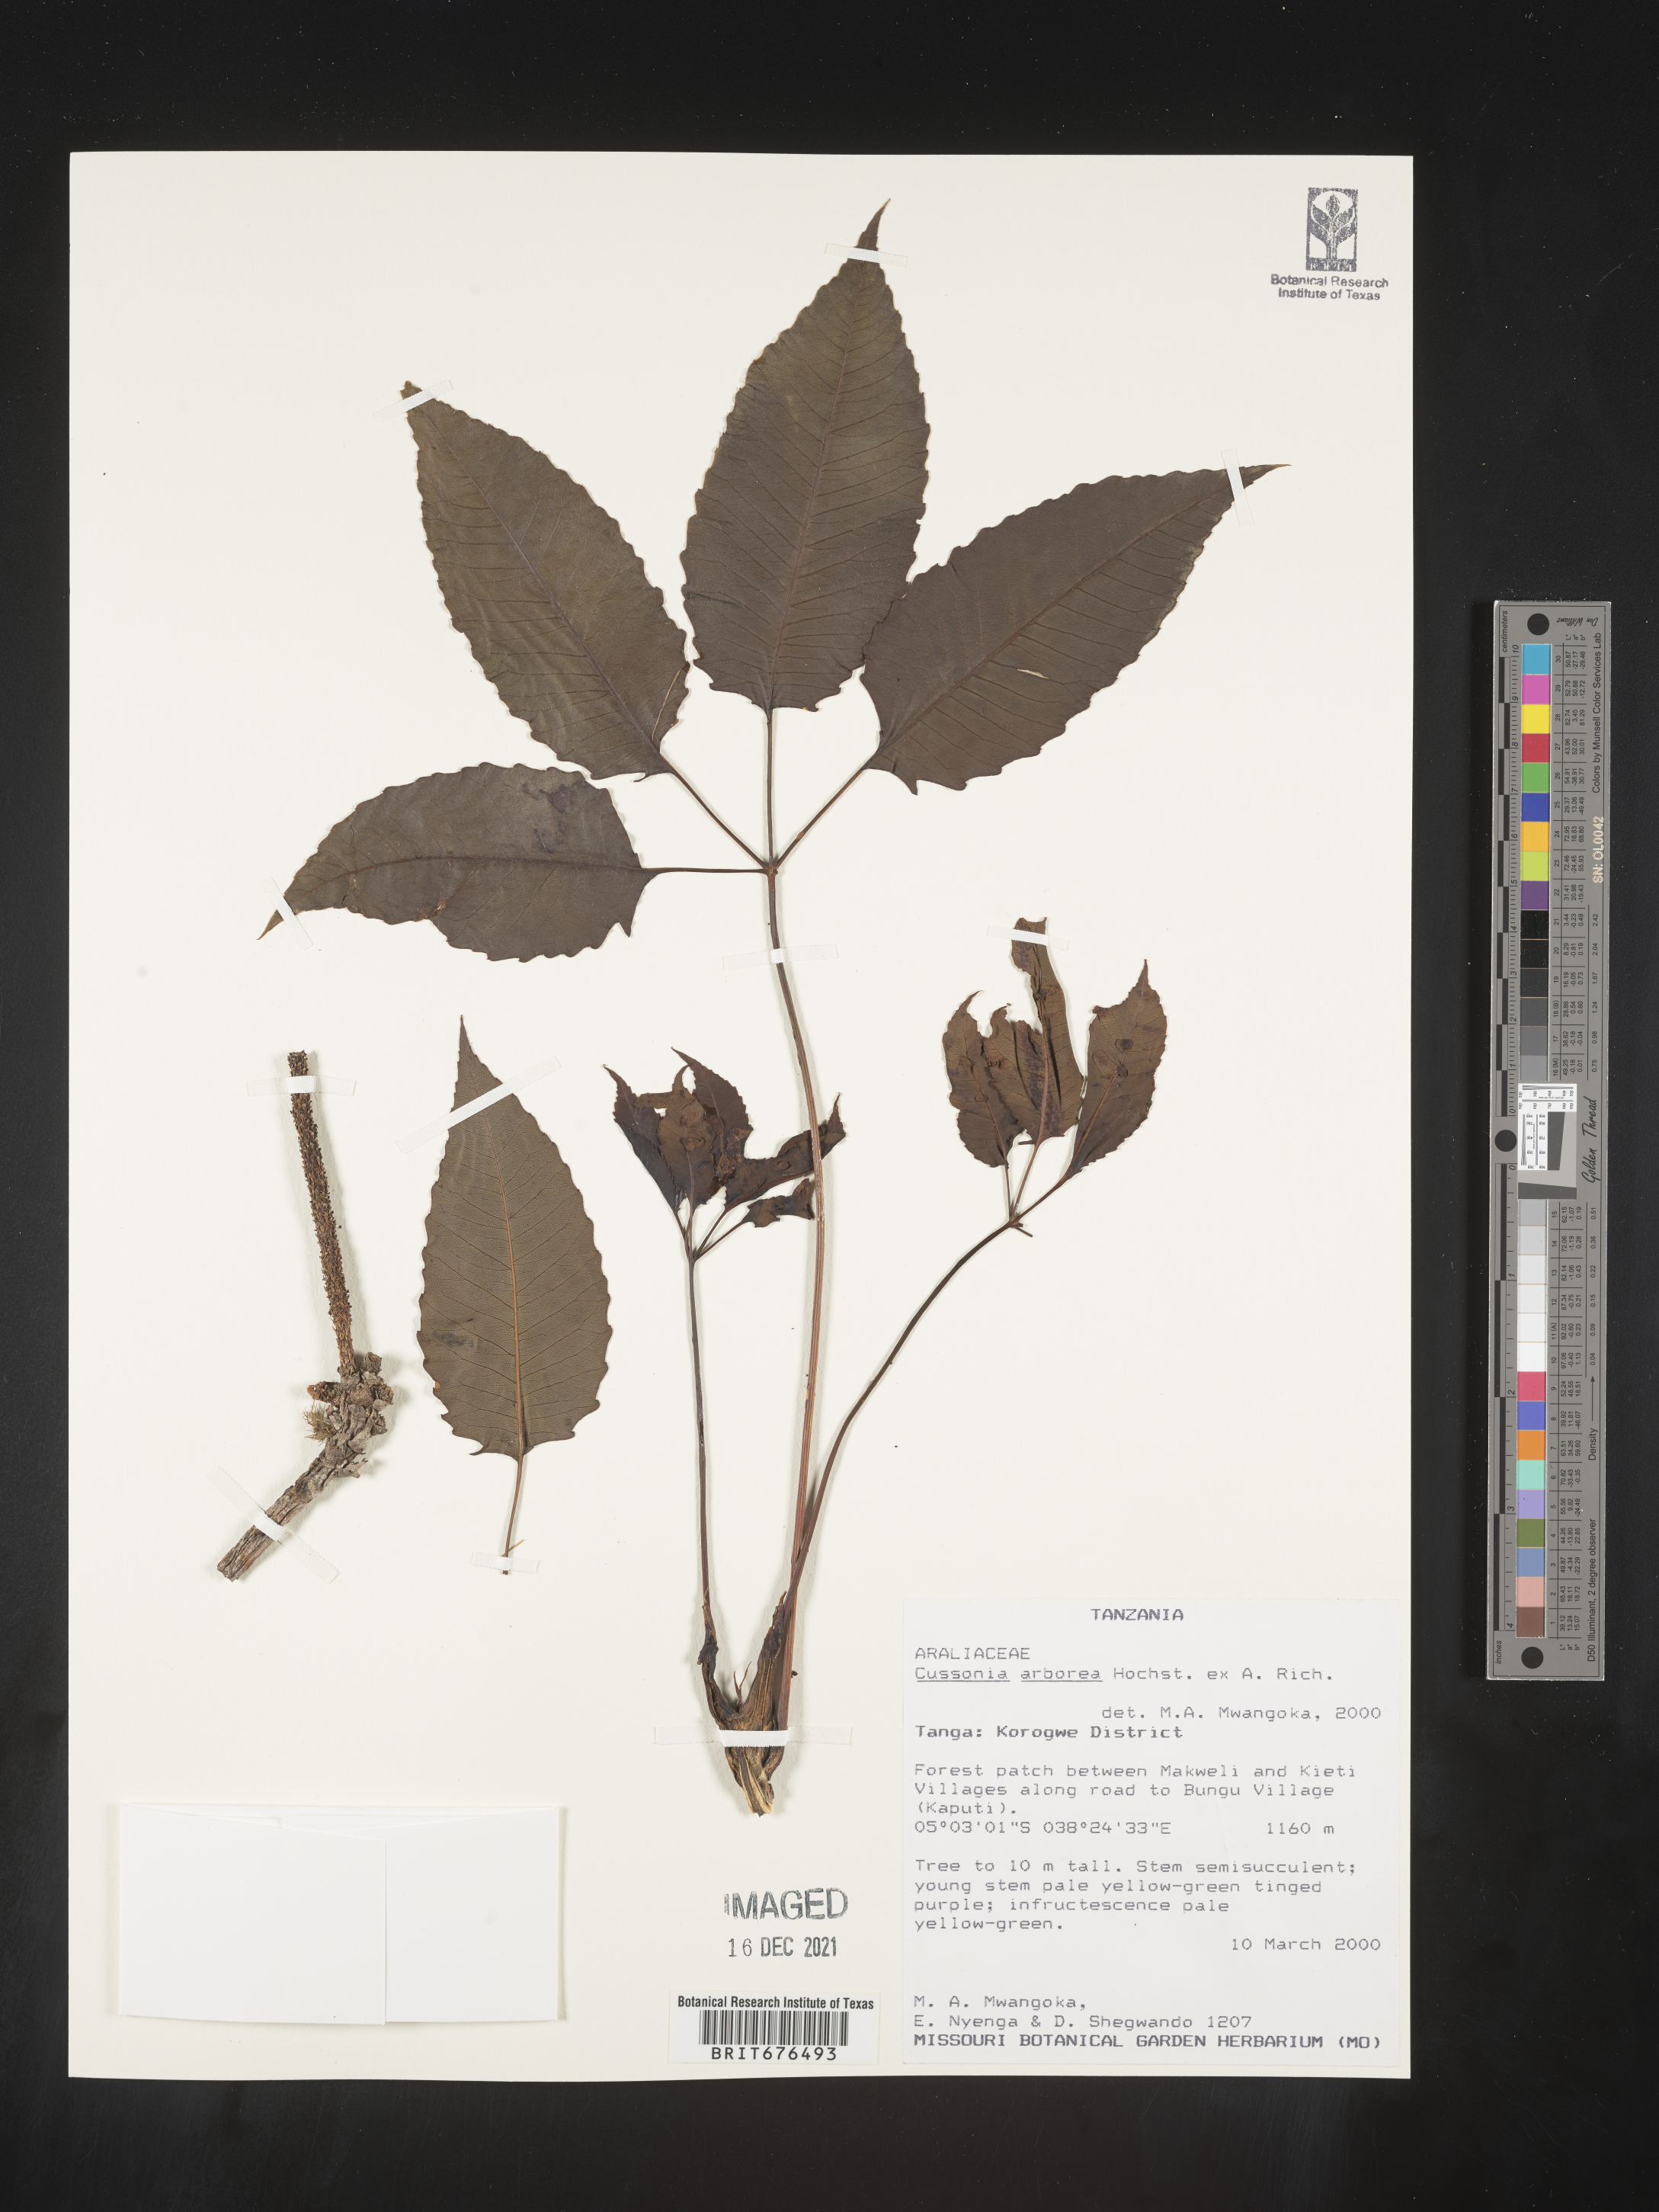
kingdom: Plantae
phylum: Tracheophyta
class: Magnoliopsida
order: Apiales
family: Araliaceae
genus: Cussonia
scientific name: Cussonia
